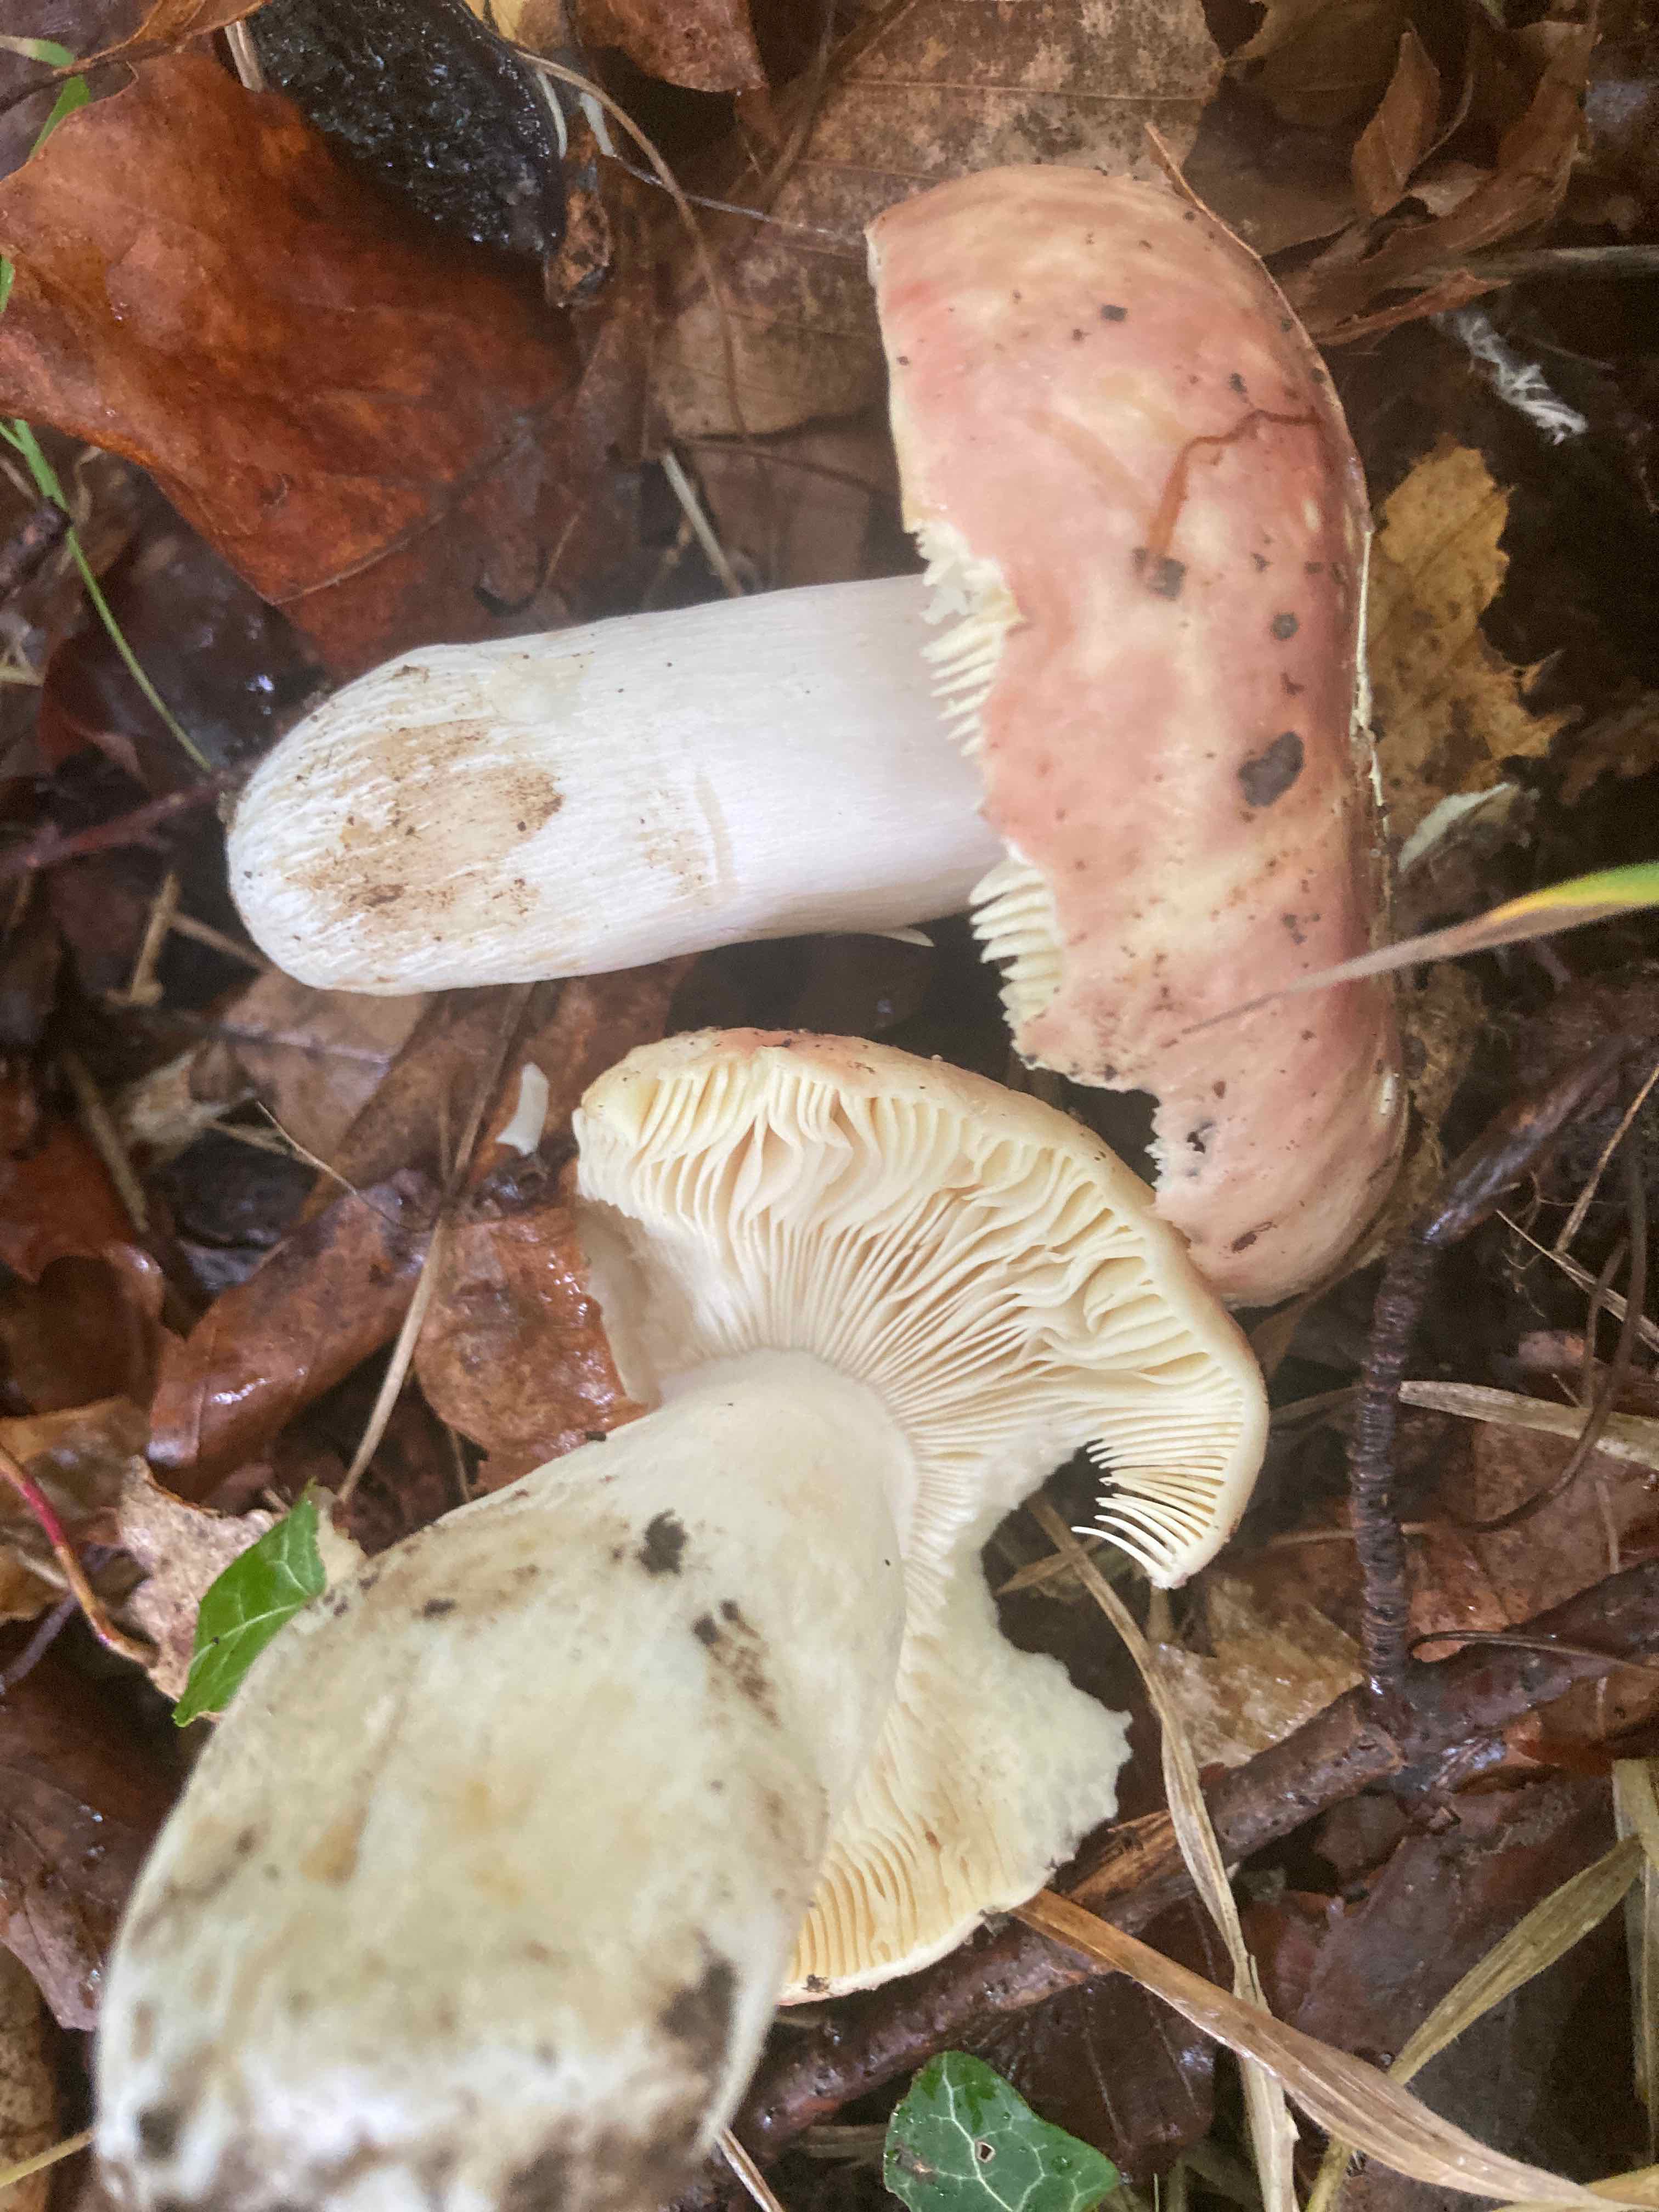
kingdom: Fungi
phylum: Basidiomycota
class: Agaricomycetes
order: Russulales
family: Russulaceae
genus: Russula
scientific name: Russula romellii
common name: romells skørhat
